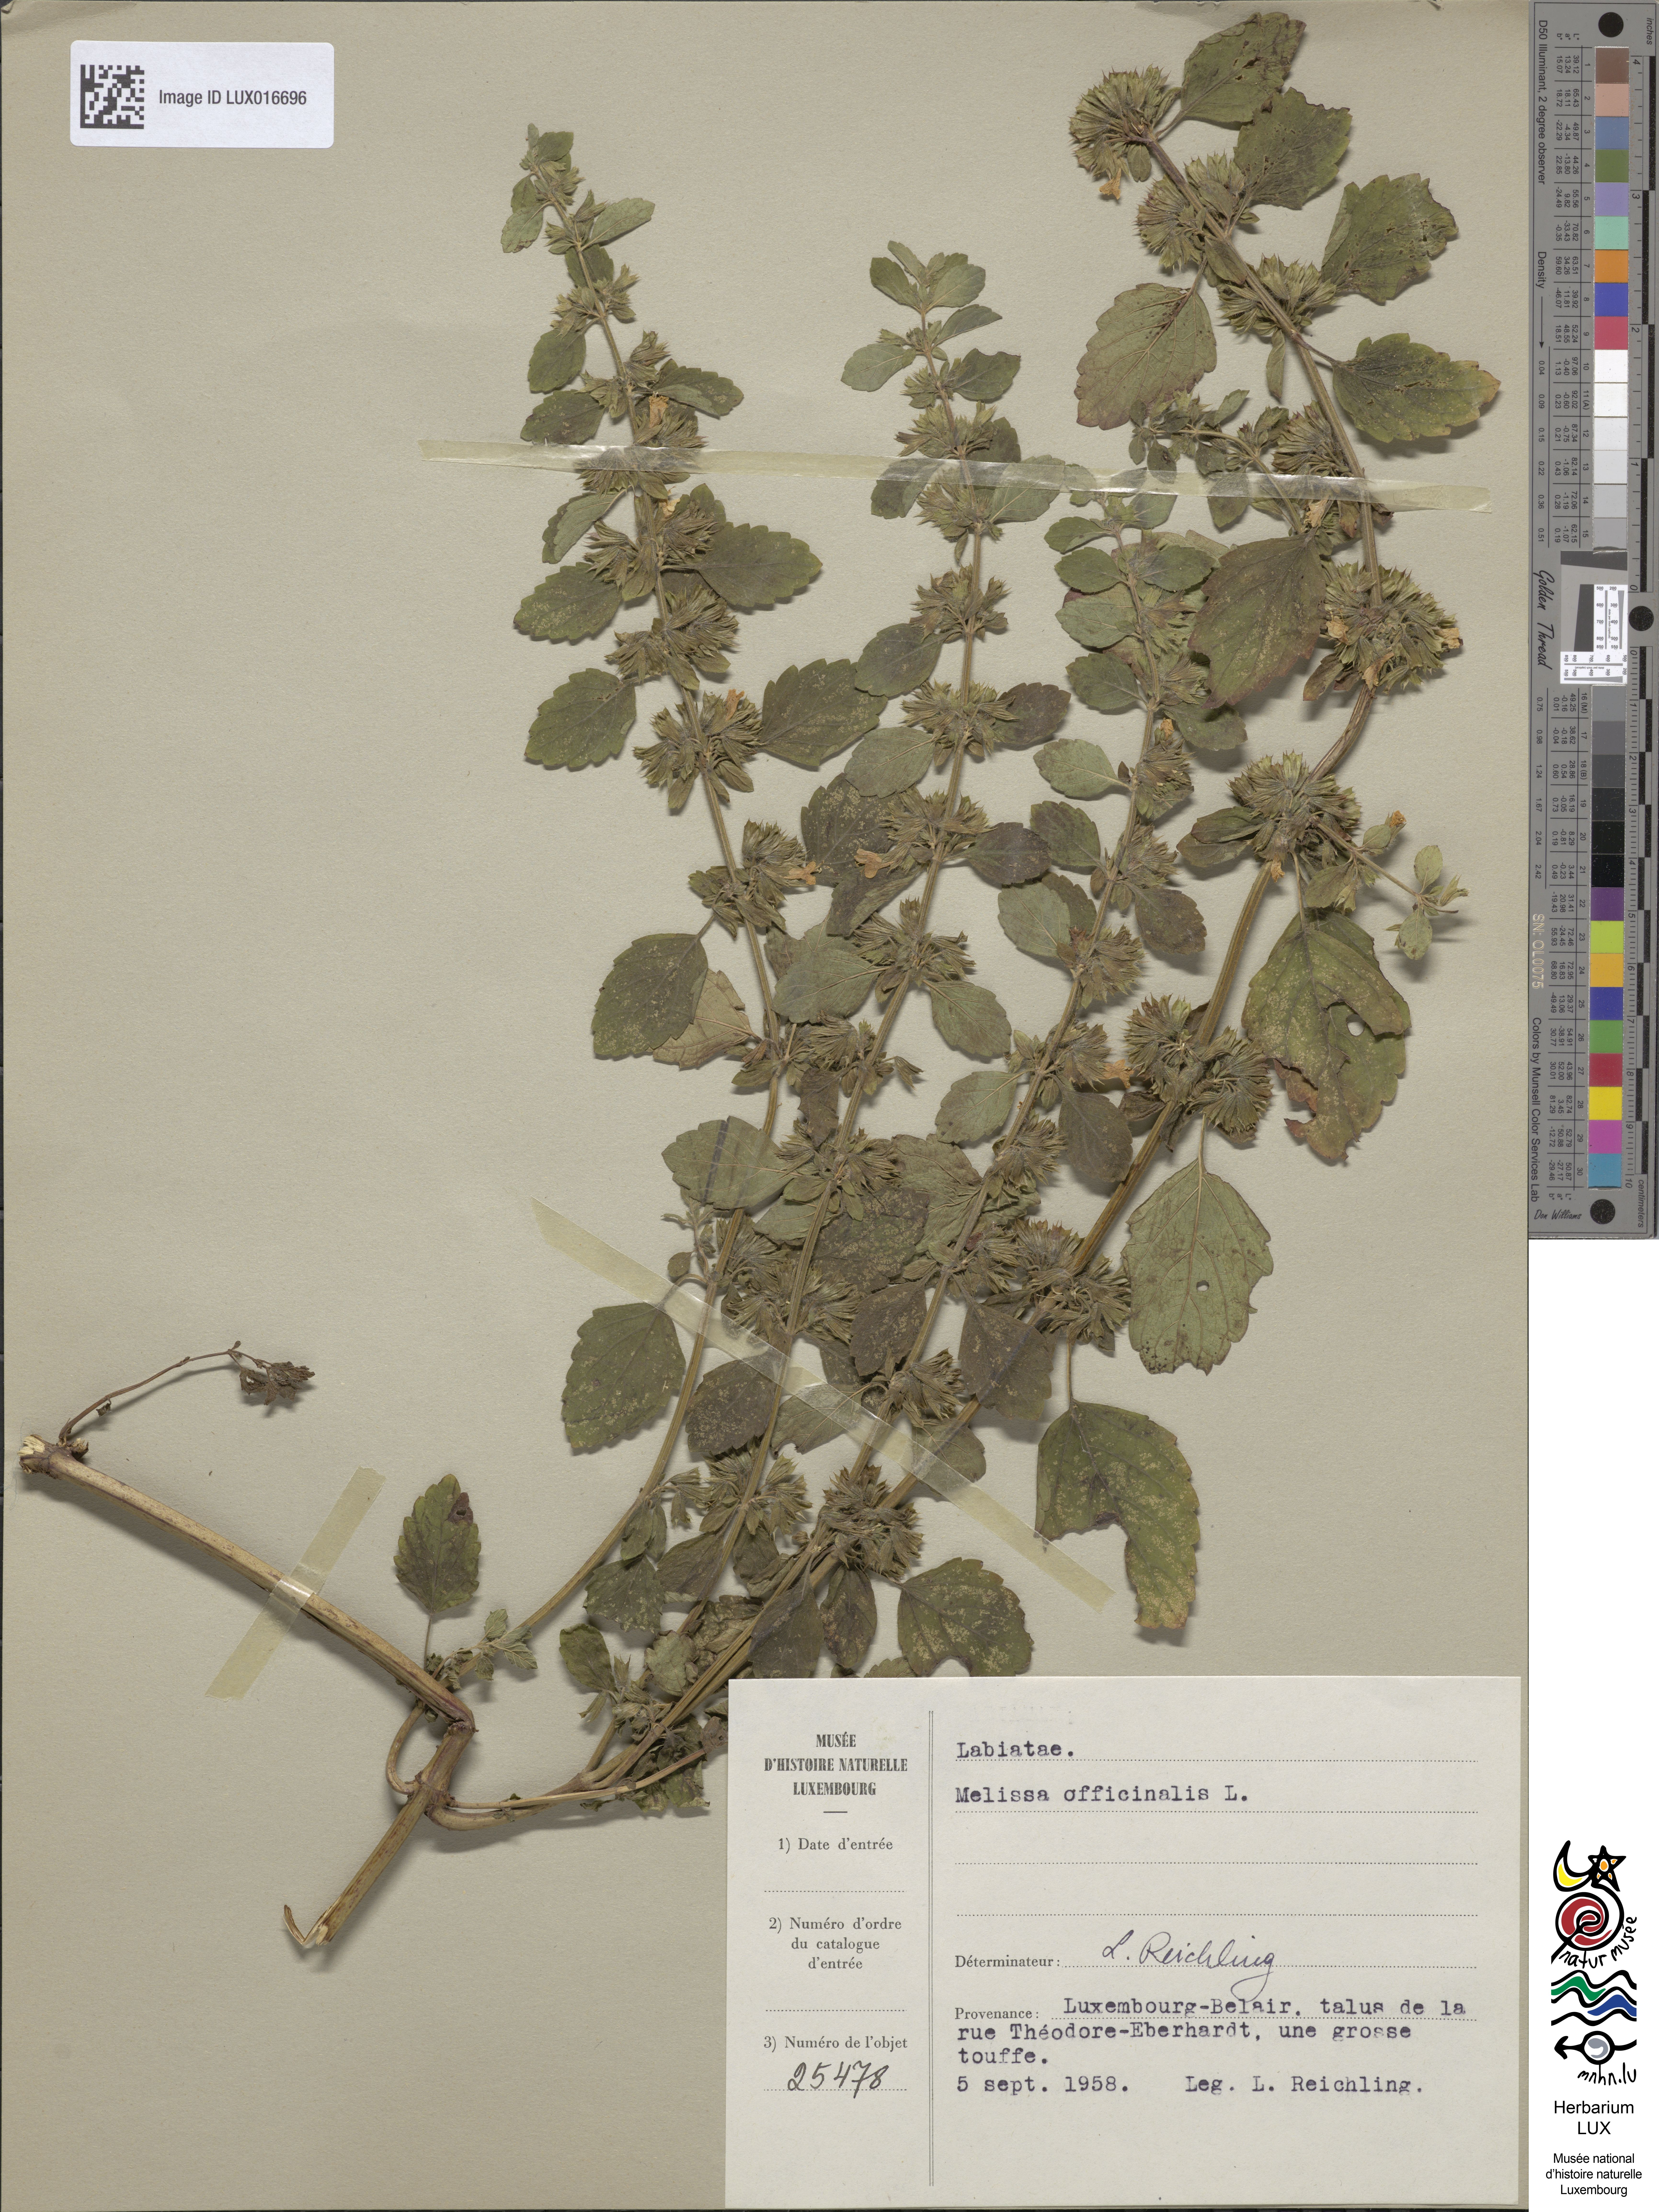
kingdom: Plantae
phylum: Tracheophyta
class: Magnoliopsida
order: Lamiales
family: Lamiaceae
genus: Melissa
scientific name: Melissa officinalis
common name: Balm
